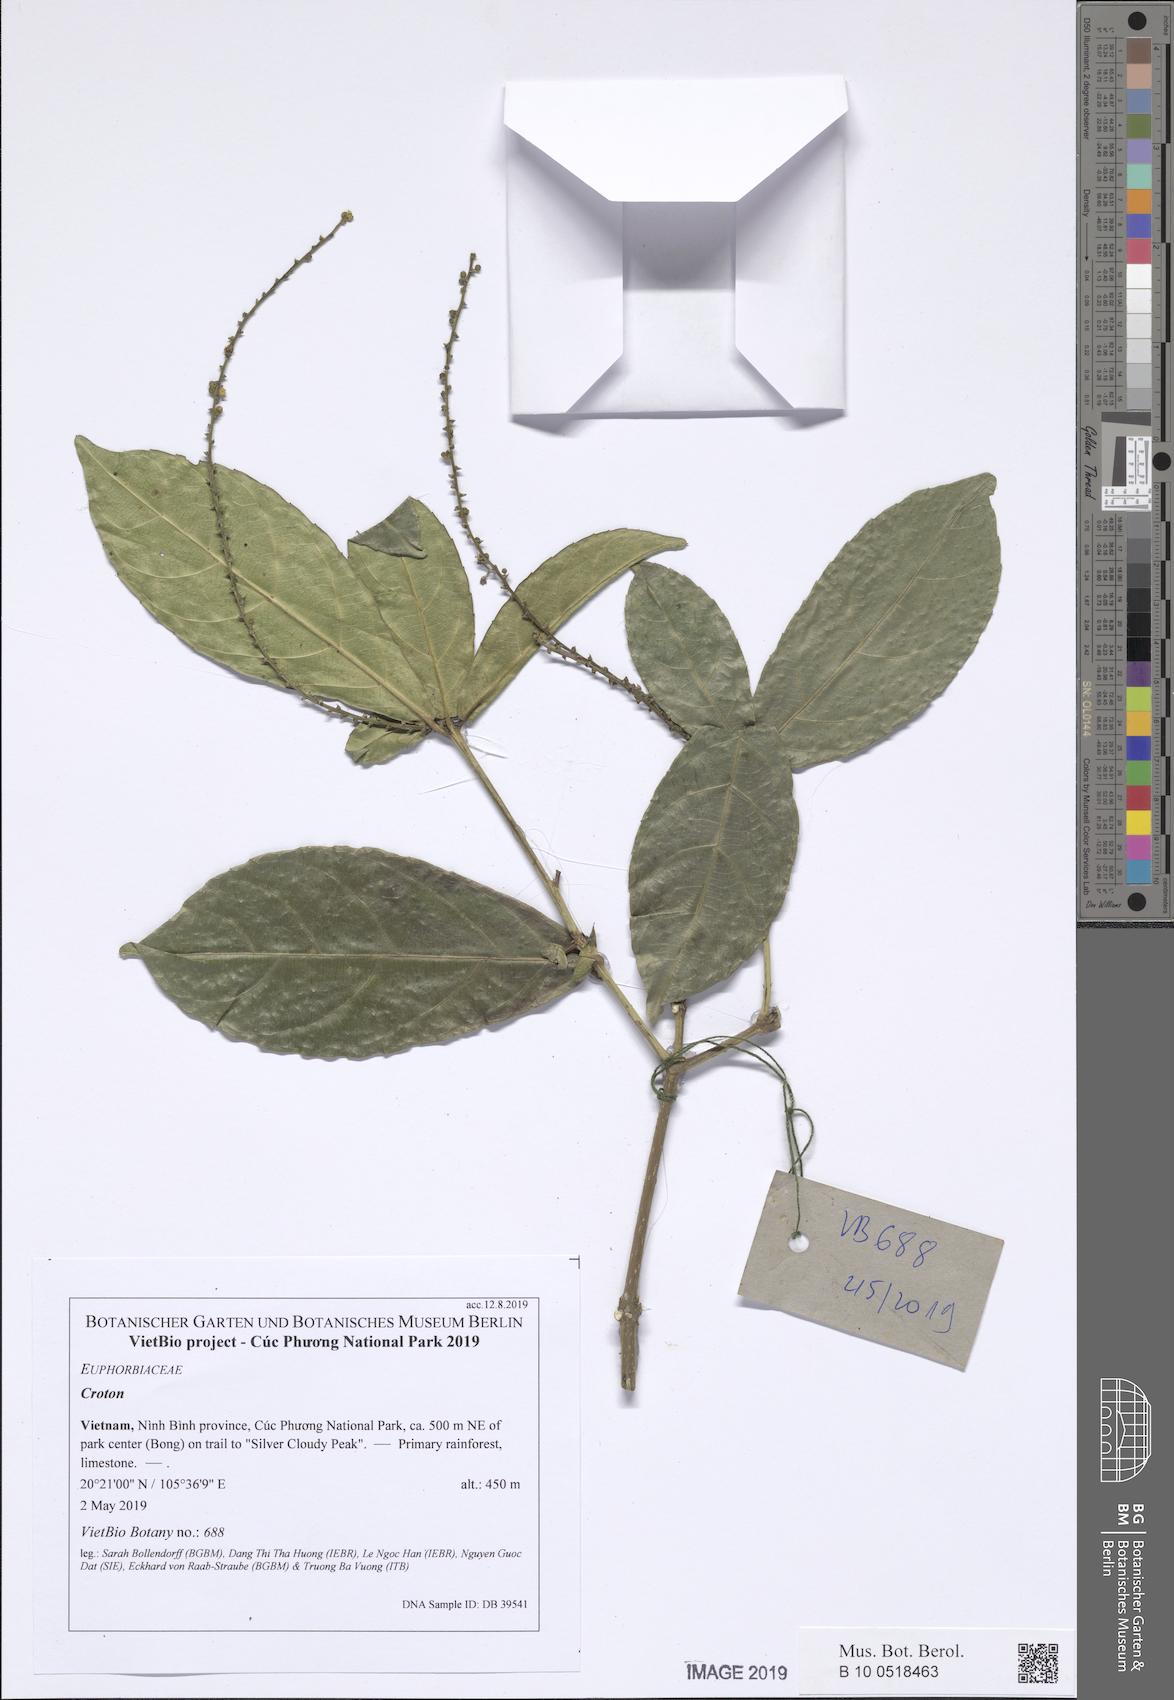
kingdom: Plantae
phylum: Tracheophyta
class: Magnoliopsida
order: Malpighiales
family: Euphorbiaceae
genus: Croton
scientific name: Croton
